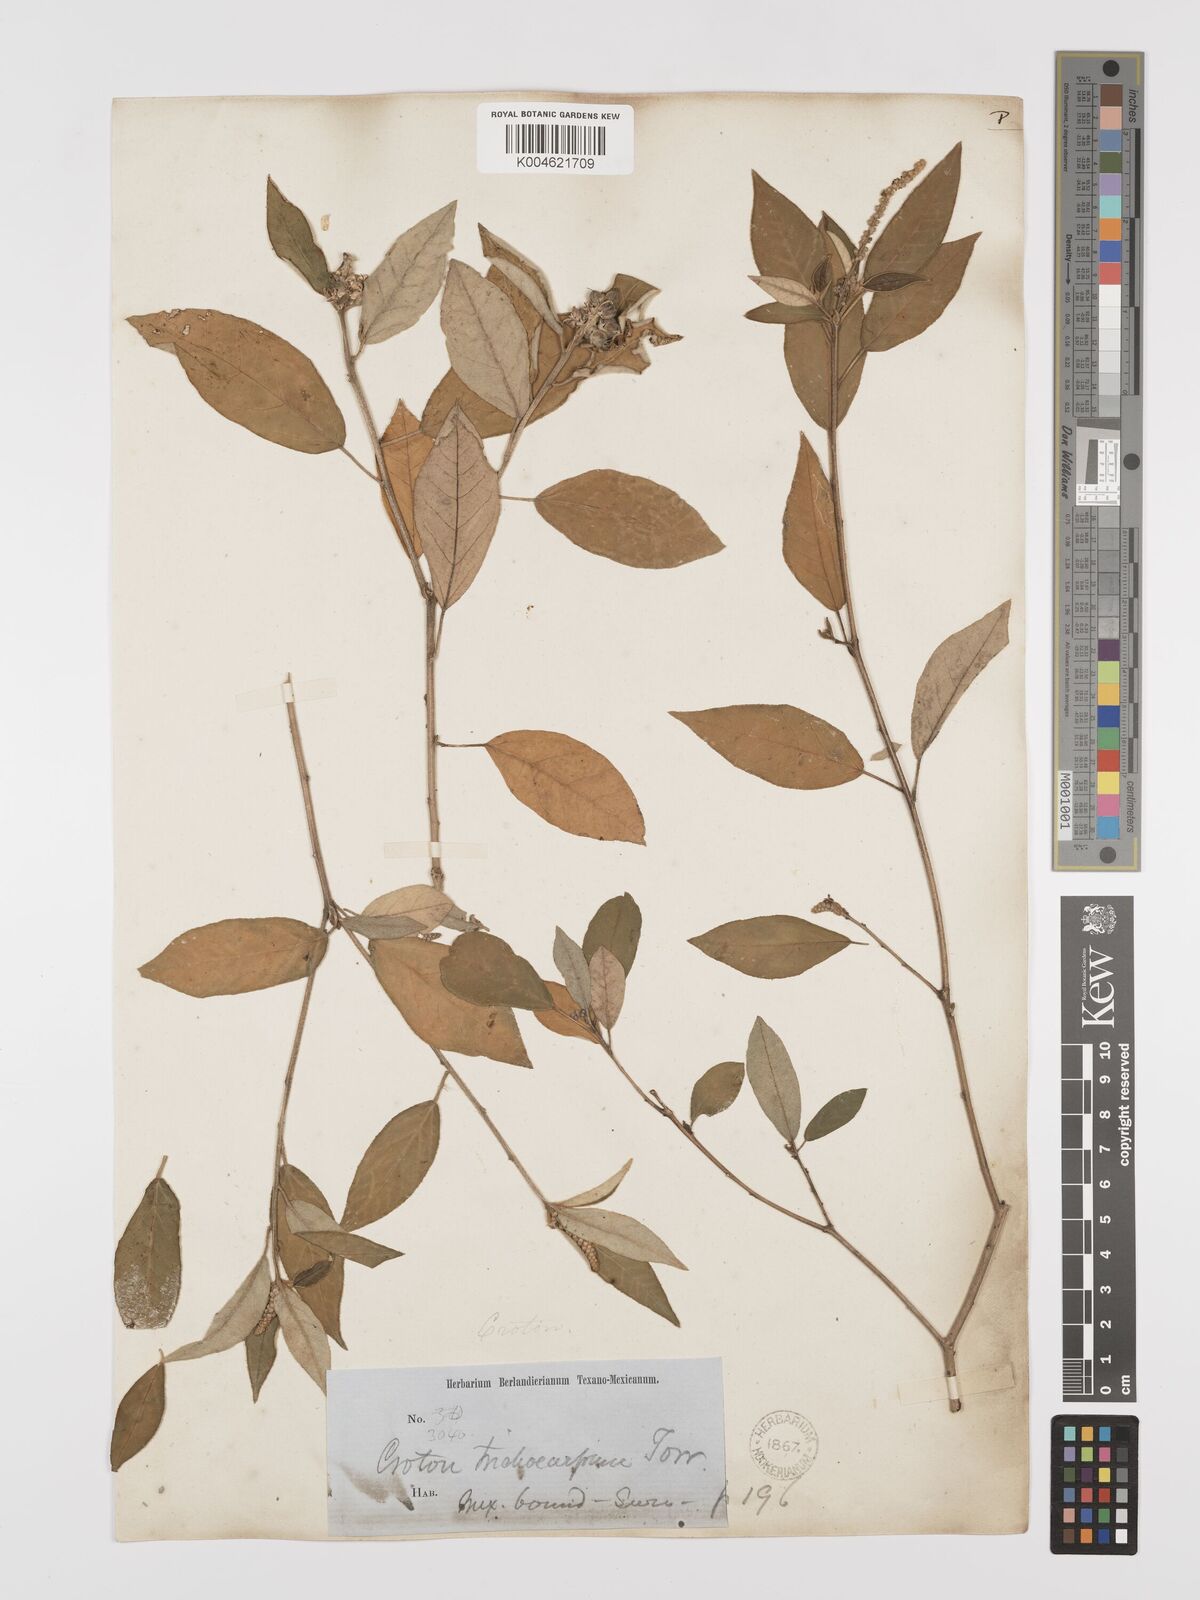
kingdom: Plantae
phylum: Tracheophyta
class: Magnoliopsida
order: Malpighiales
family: Euphorbiaceae
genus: Croton
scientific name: Croton cortesianus
